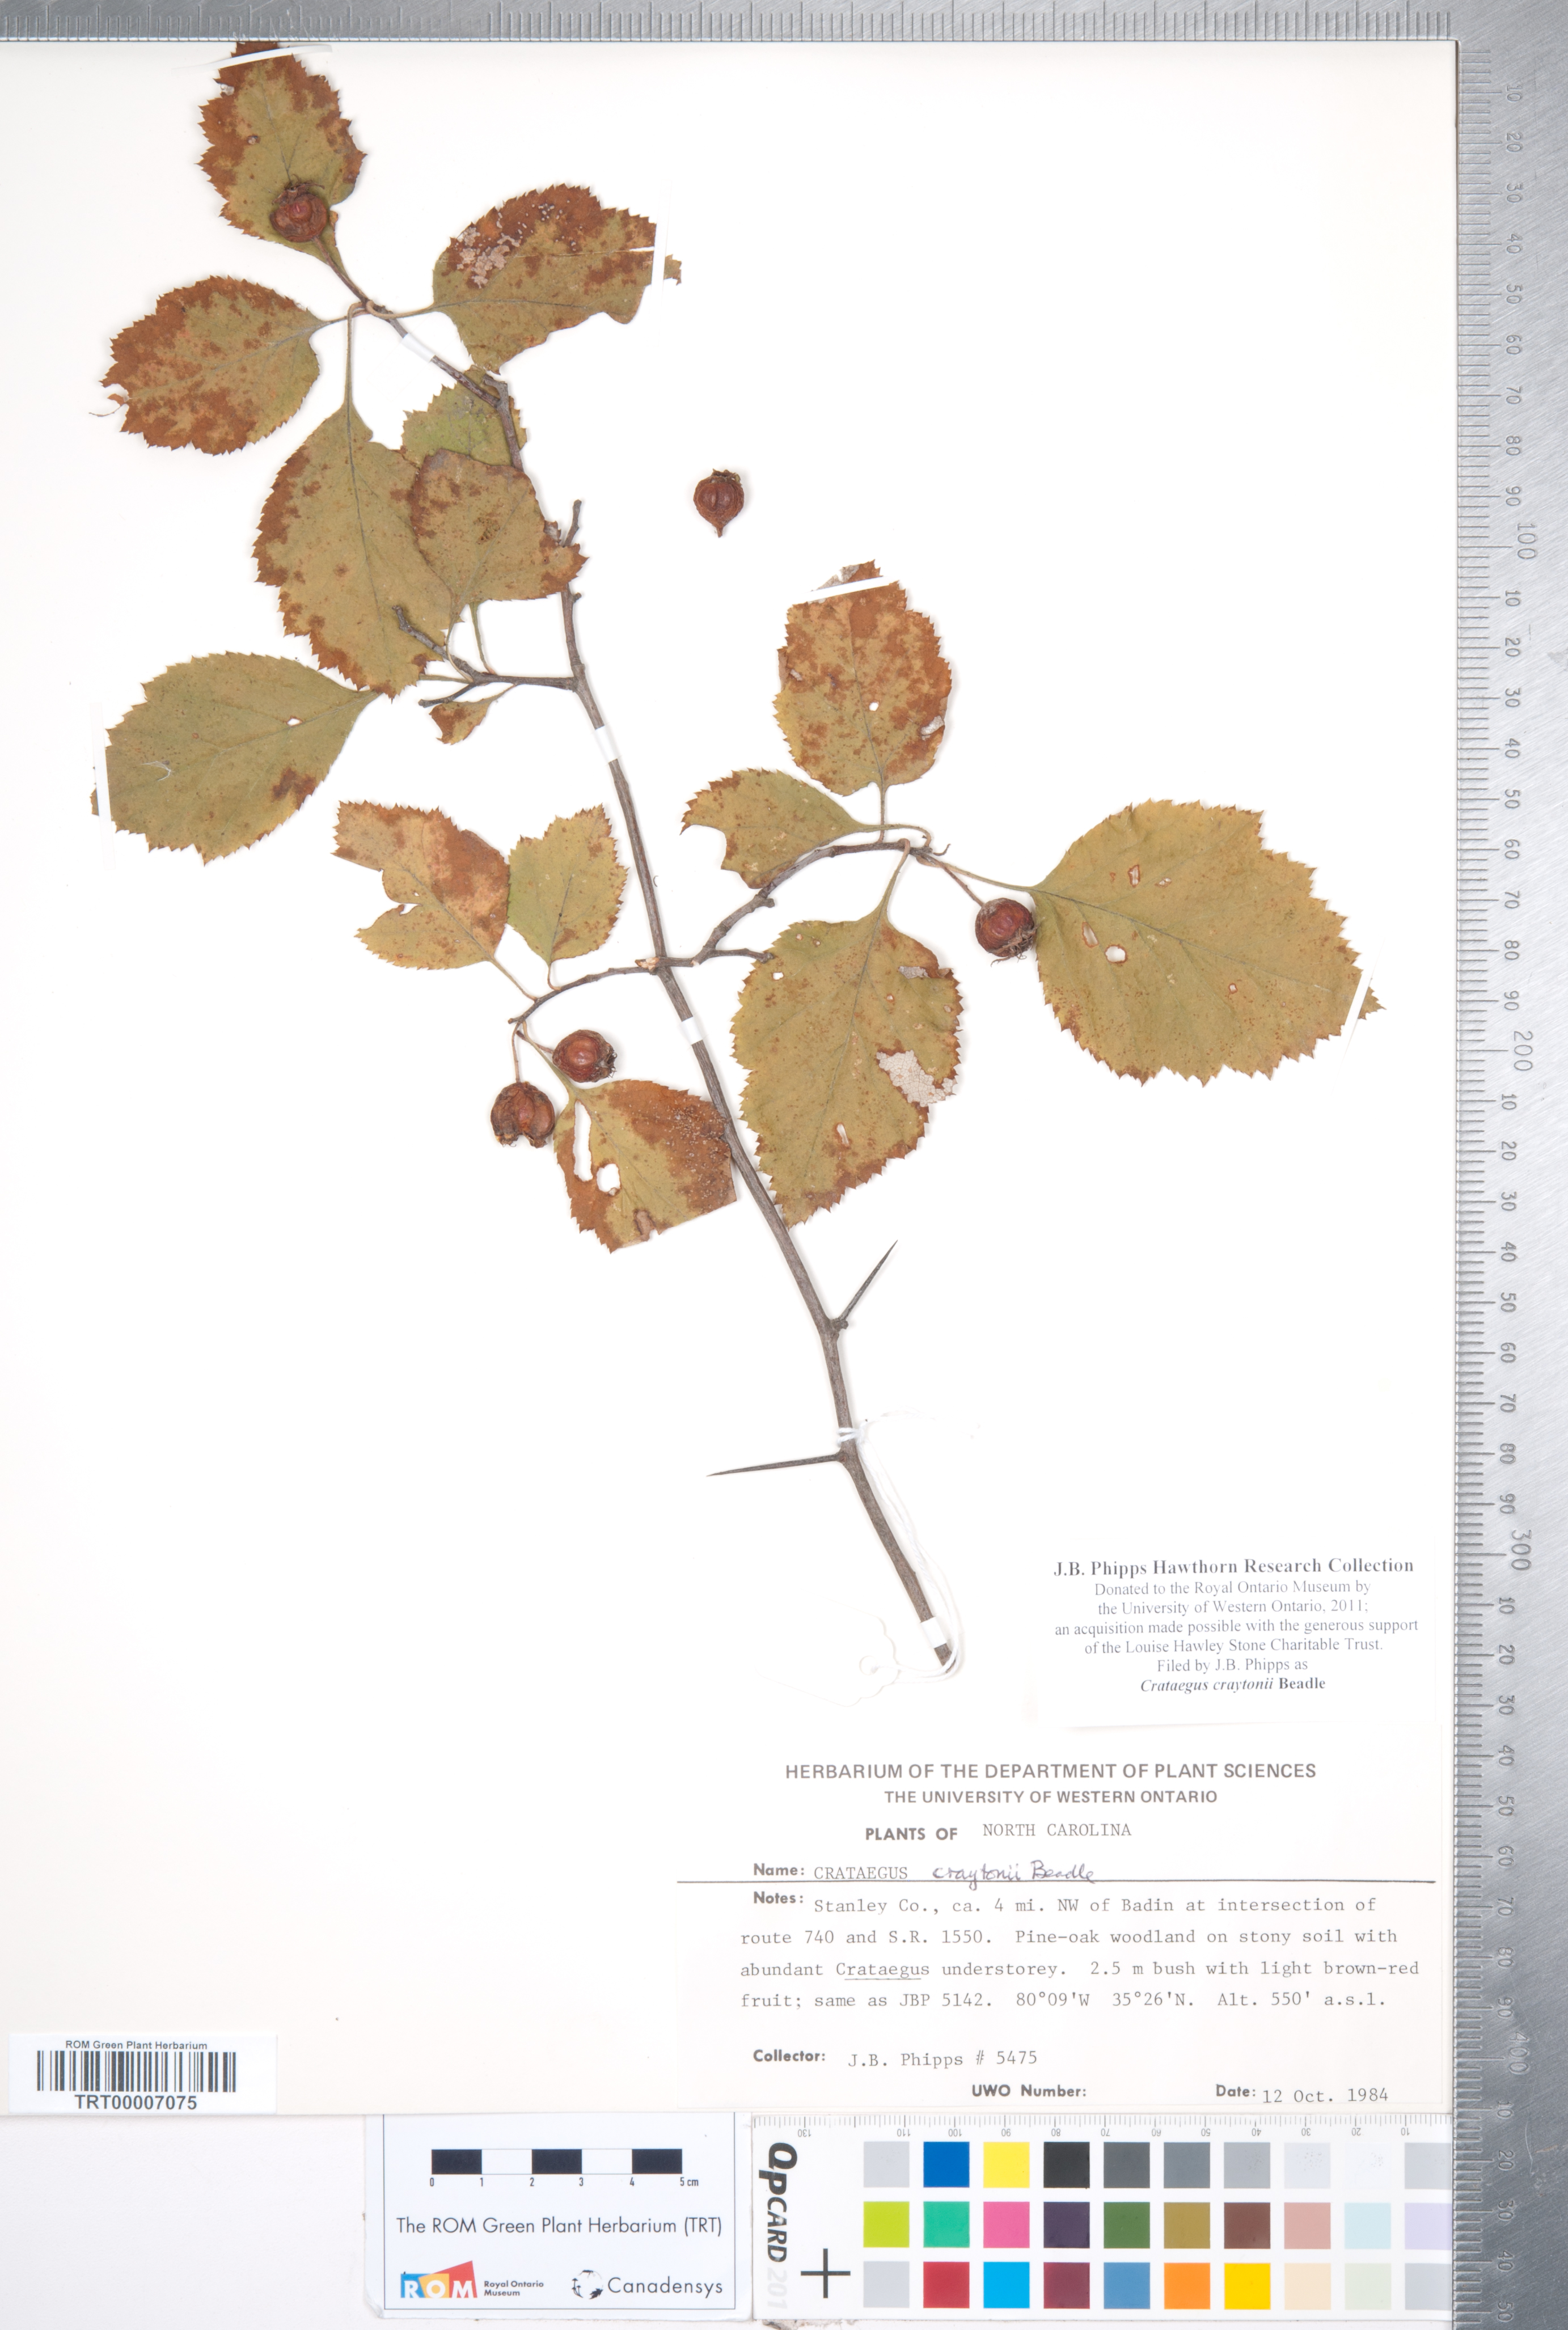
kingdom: Plantae
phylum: Tracheophyta
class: Magnoliopsida
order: Rosales
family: Rosaceae
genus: Crataegus
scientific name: Crataegus intricata
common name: Biltmore hawthorn
